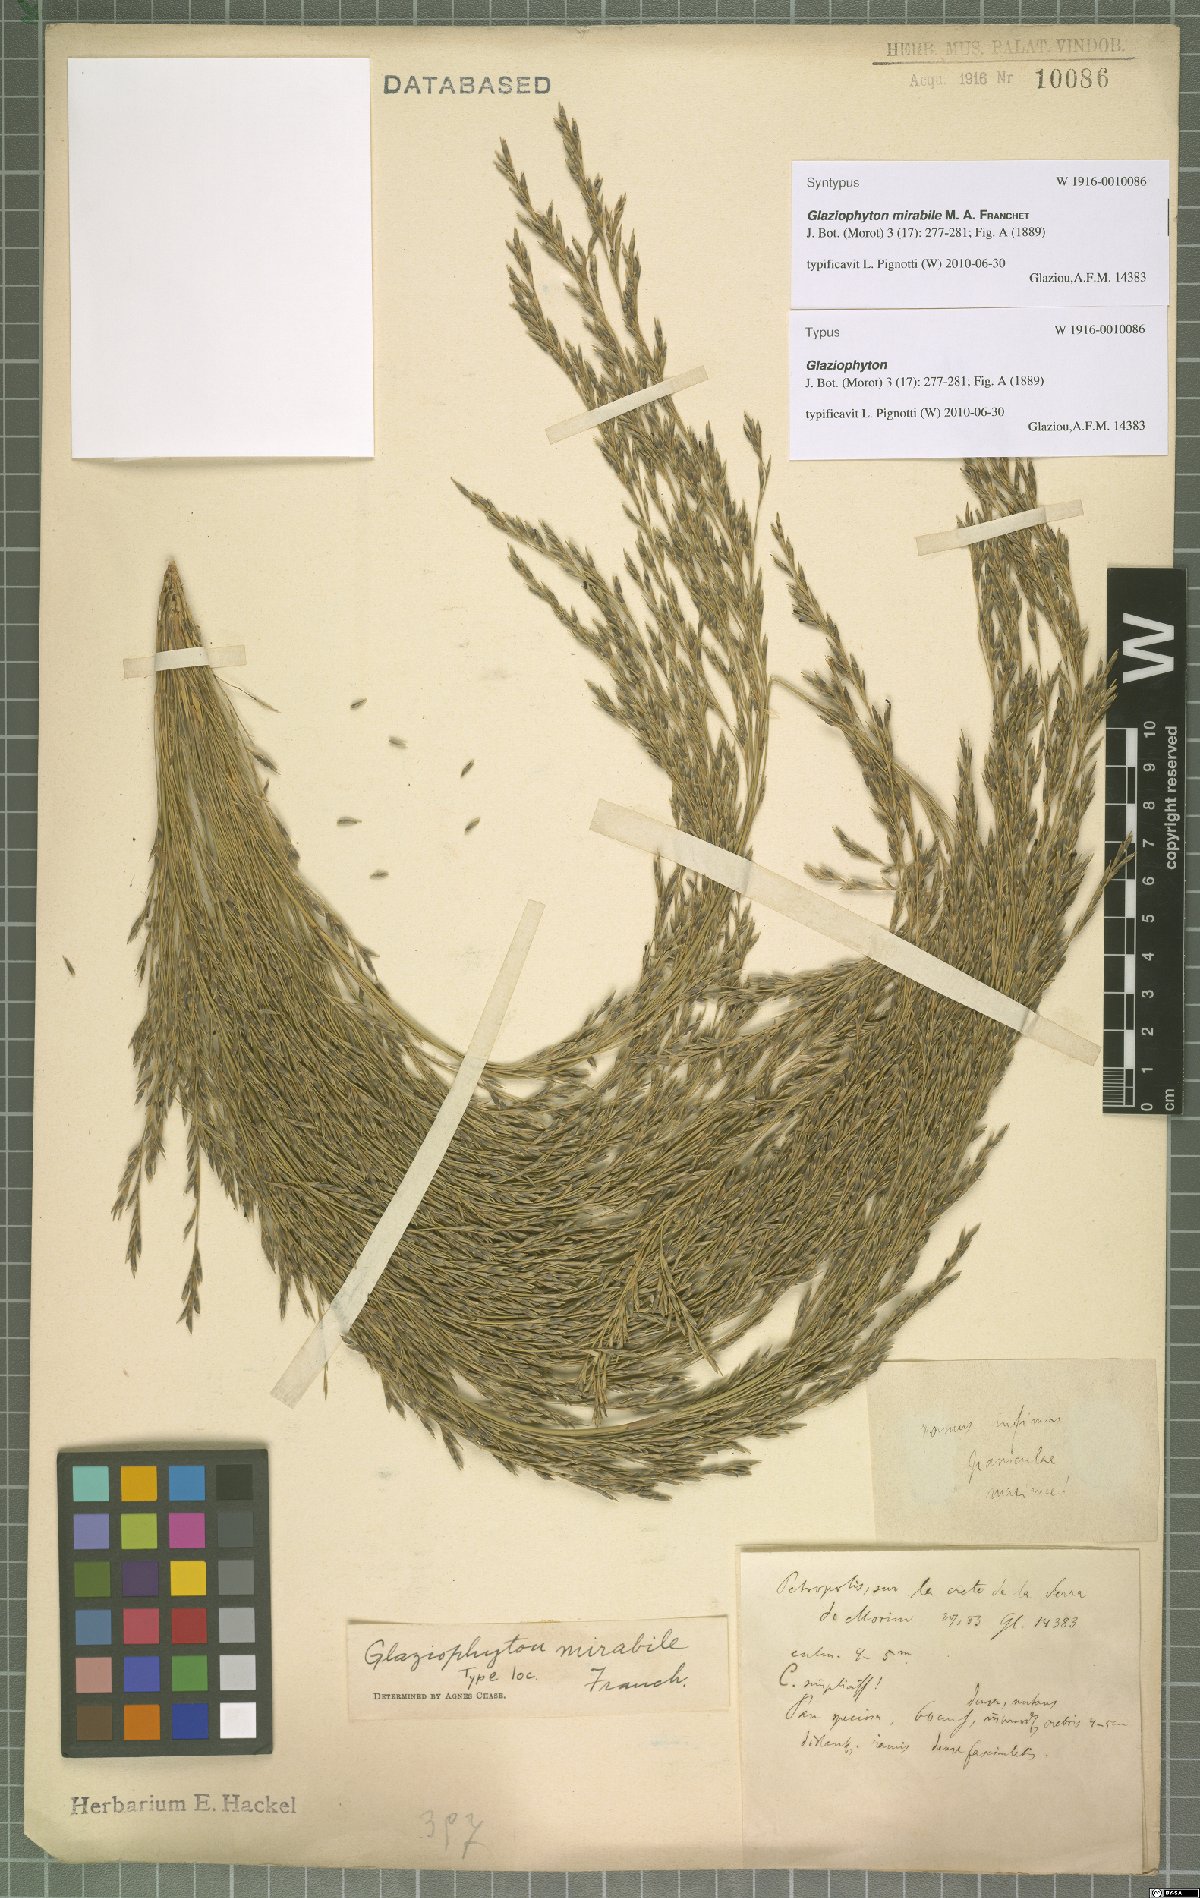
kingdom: Plantae
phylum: Tracheophyta
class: Liliopsida
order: Poales
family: Poaceae
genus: Glaziophyton
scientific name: Glaziophyton mirabile
